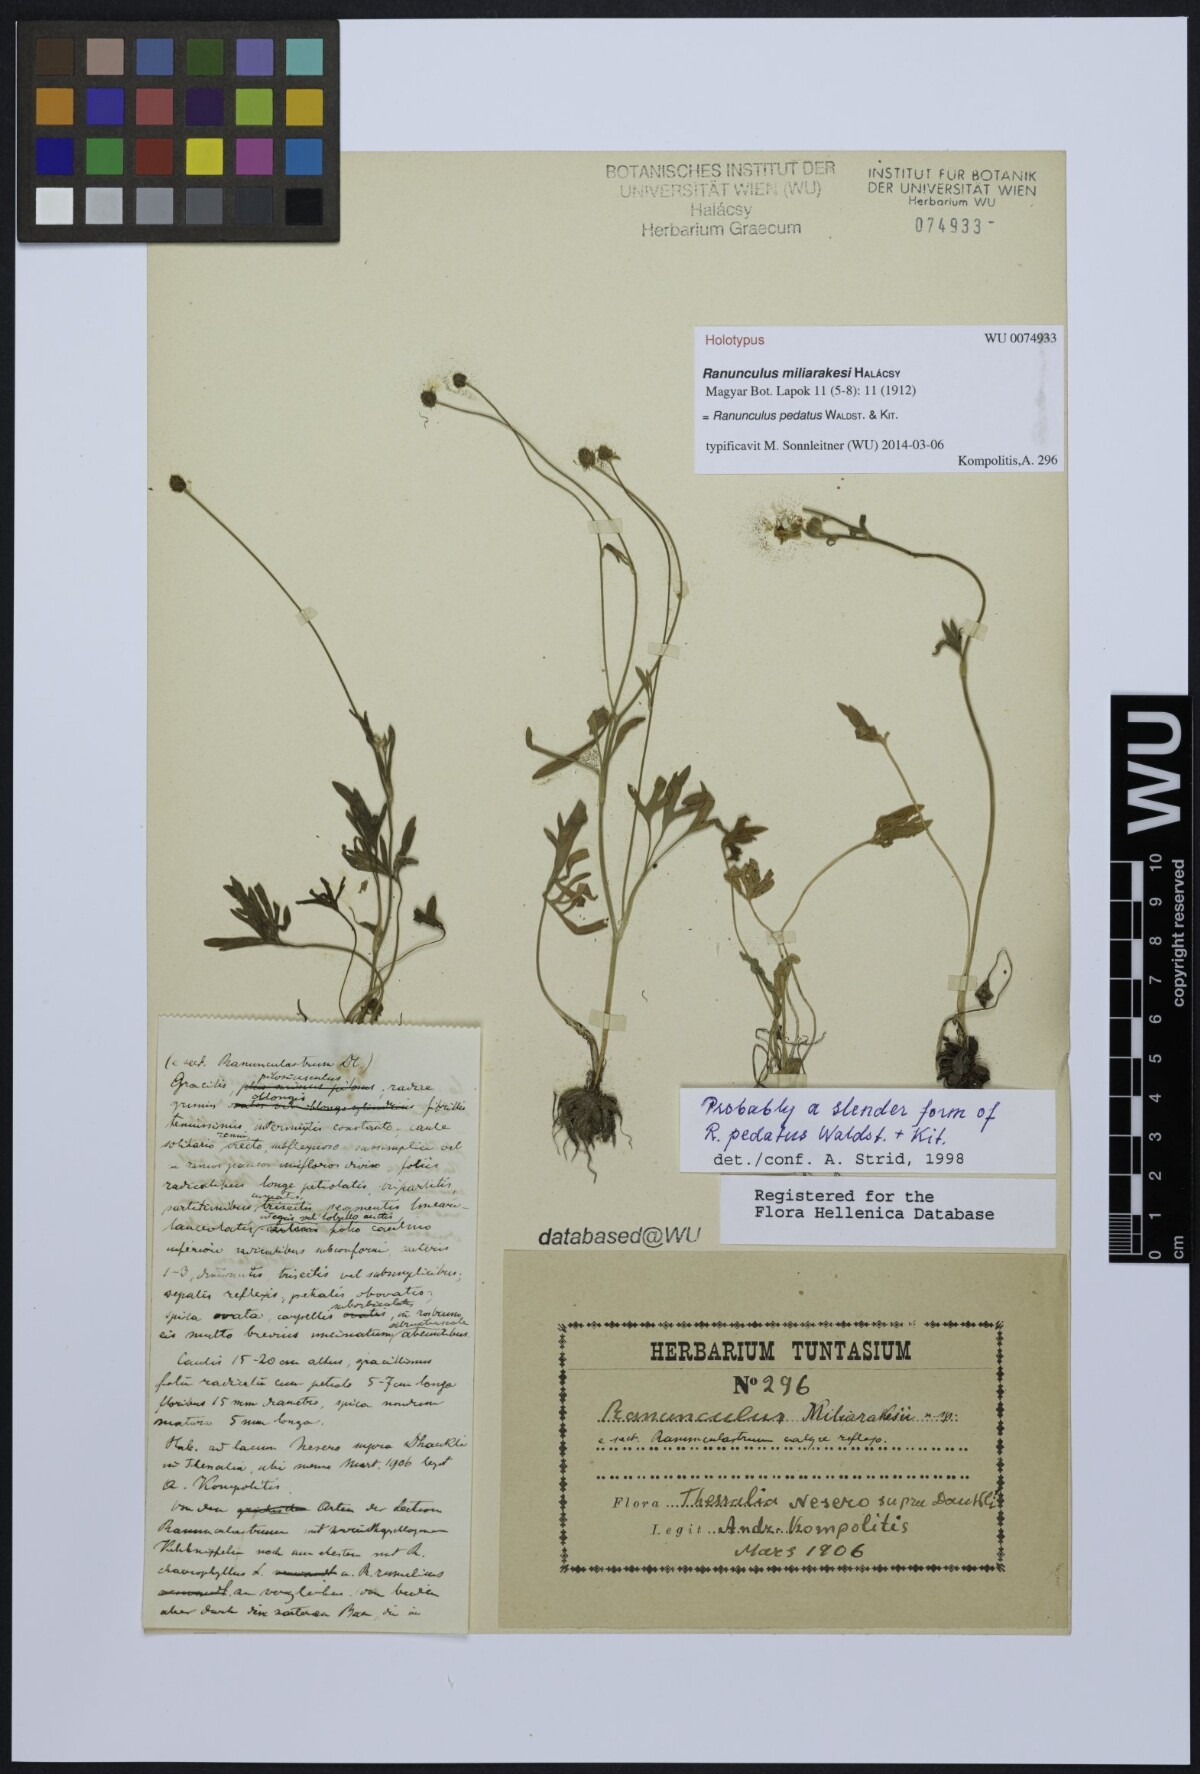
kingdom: Plantae
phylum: Tracheophyta
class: Magnoliopsida
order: Ranunculales
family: Ranunculaceae
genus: Ranunculus
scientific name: Ranunculus pedatus
